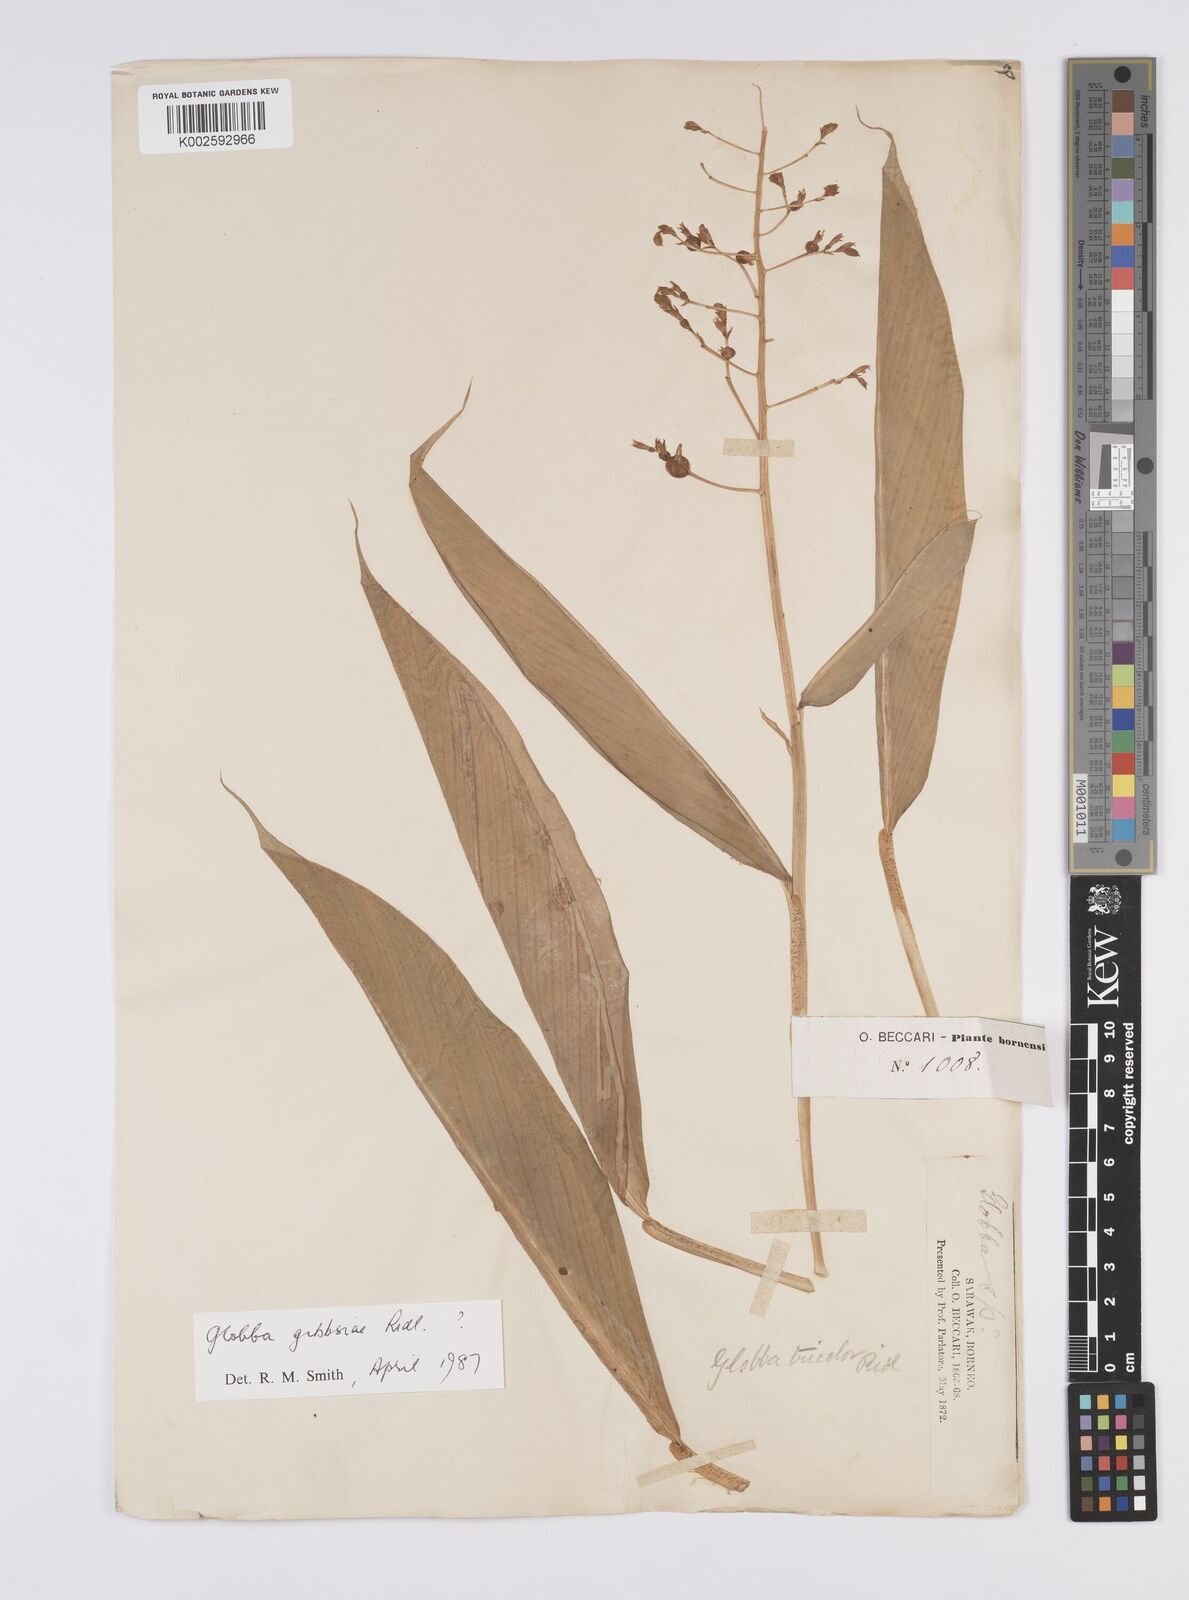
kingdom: Plantae
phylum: Tracheophyta
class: Liliopsida
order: Zingiberales
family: Zingiberaceae
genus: Globba
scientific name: Globba tricolor
